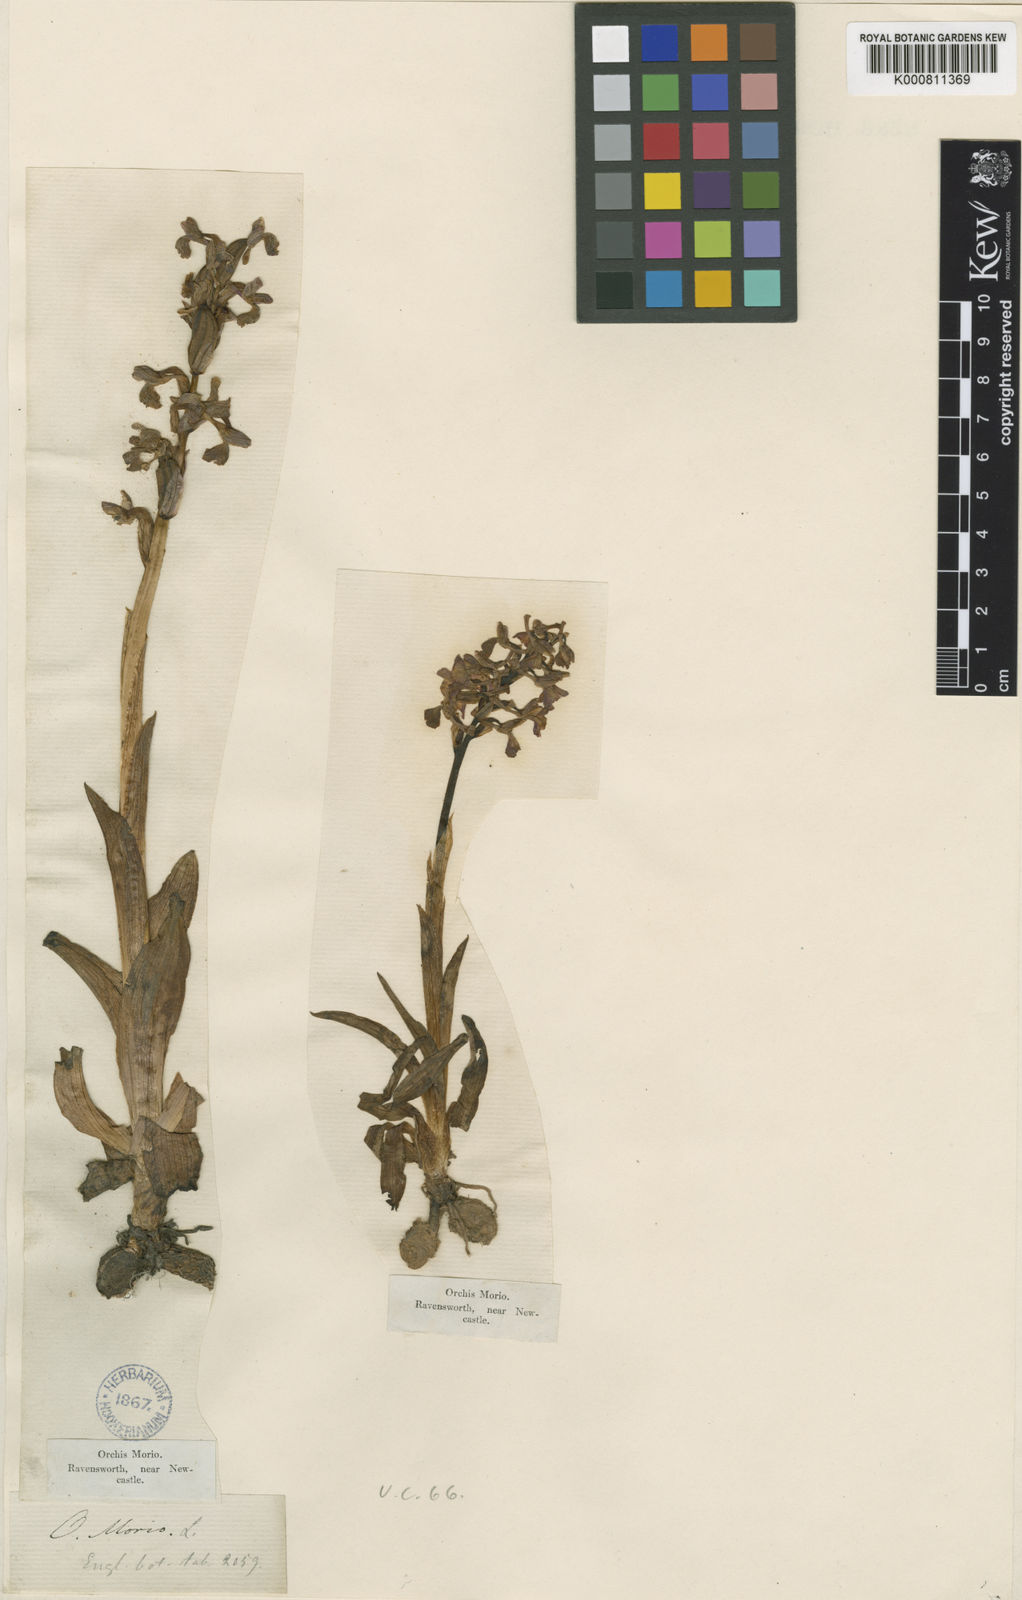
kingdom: Plantae
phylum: Tracheophyta
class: Liliopsida
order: Asparagales
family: Orchidaceae
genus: Anacamptis
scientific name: Anacamptis morio
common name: Green-winged orchid
